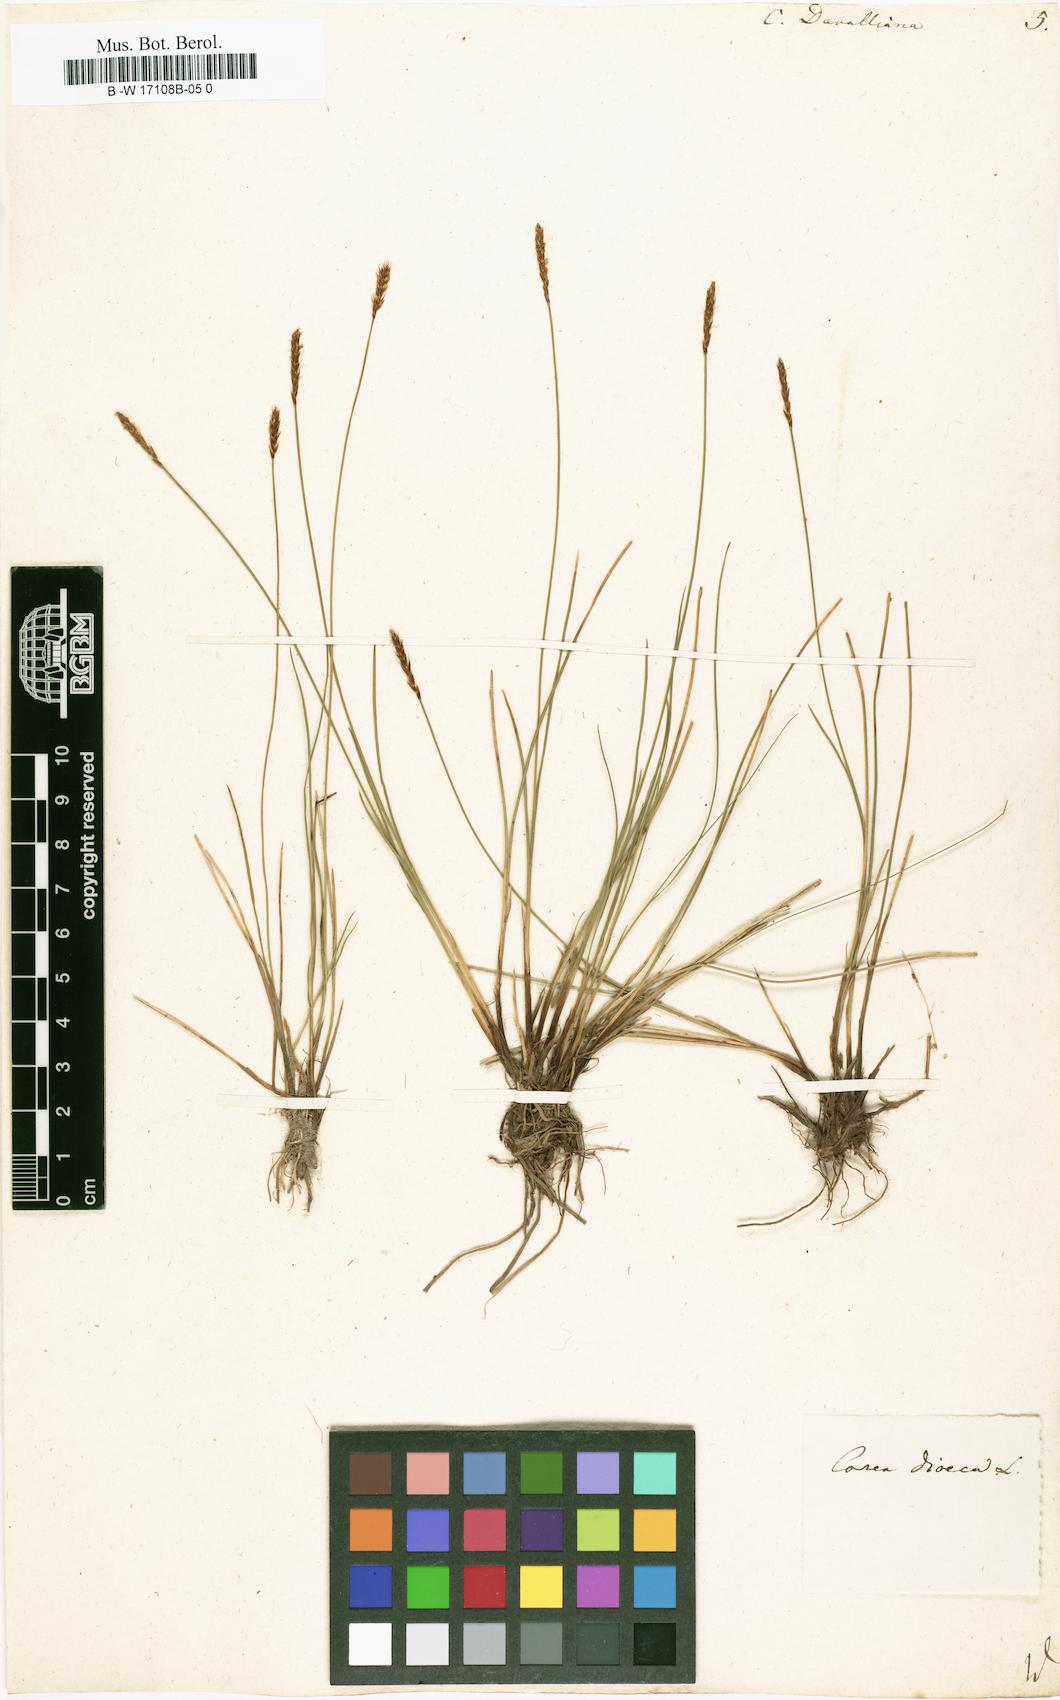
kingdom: Plantae
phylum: Tracheophyta
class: Liliopsida
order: Poales
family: Cyperaceae
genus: Carex
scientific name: Carex davalliana
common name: Davall's sedge
